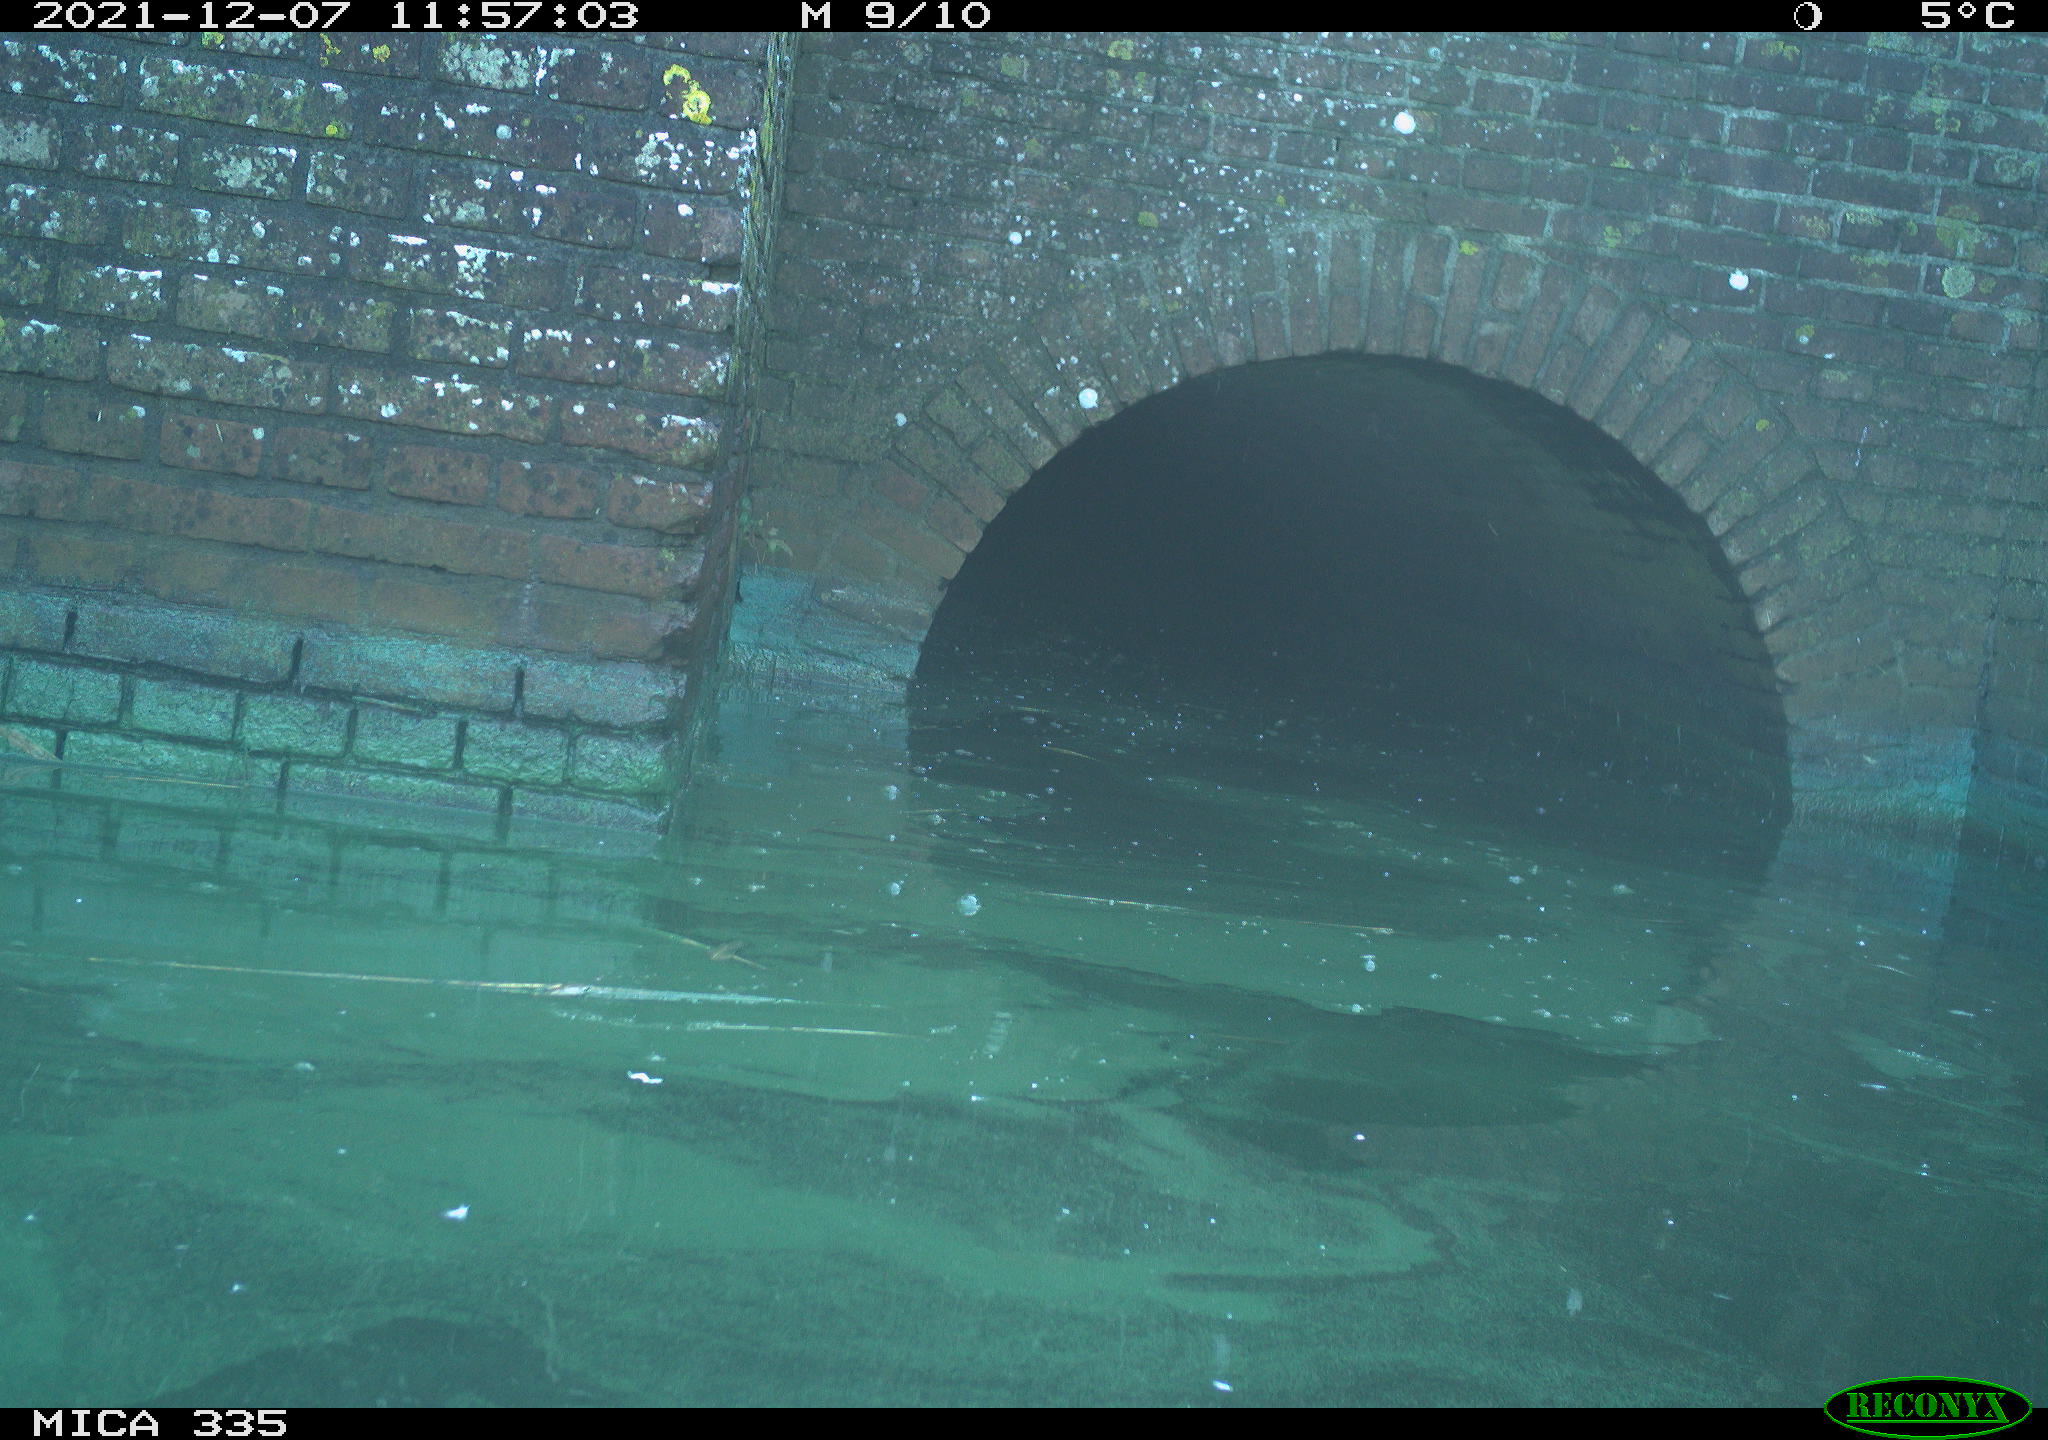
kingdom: Animalia
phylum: Chordata
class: Aves
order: Anseriformes
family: Anatidae
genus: Anas
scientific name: Anas platyrhynchos
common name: Mallard
